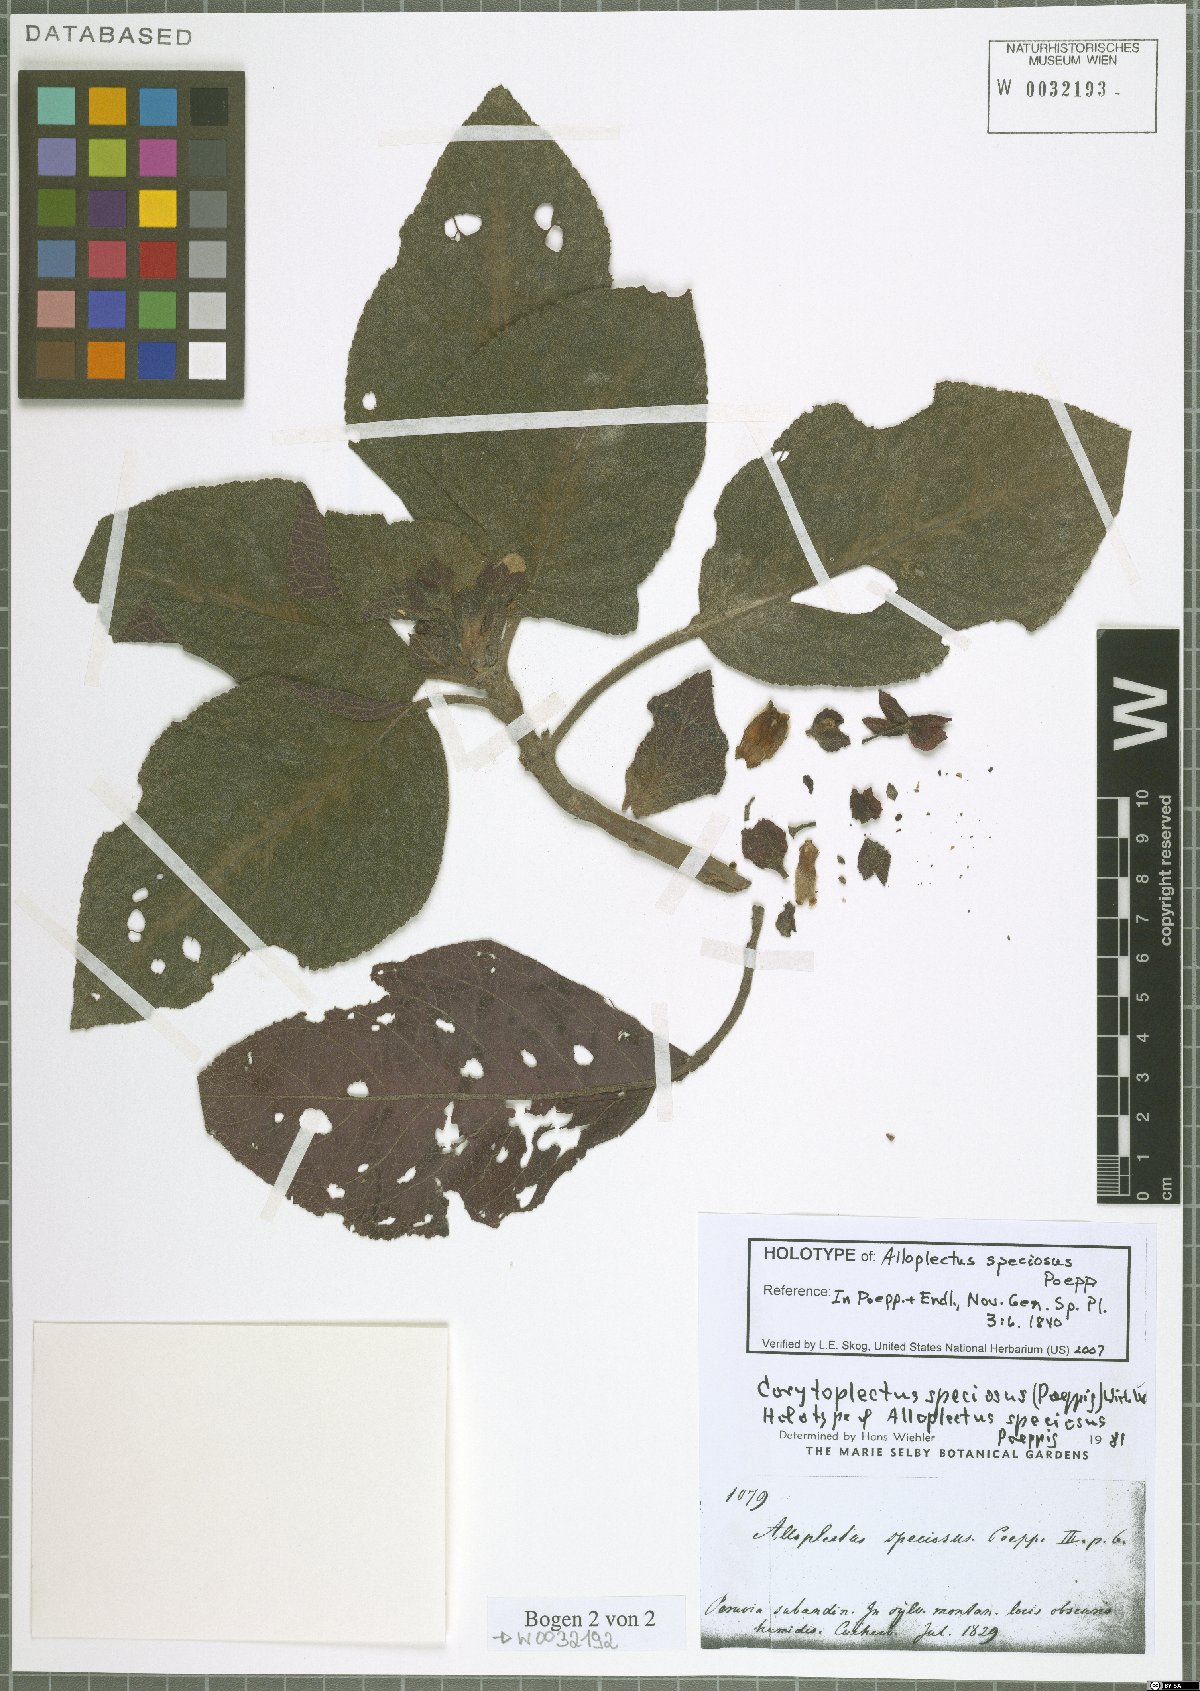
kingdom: Plantae
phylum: Tracheophyta
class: Magnoliopsida
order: Lamiales
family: Gesneriaceae
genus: Corytoplectus
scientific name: Corytoplectus speciosus
